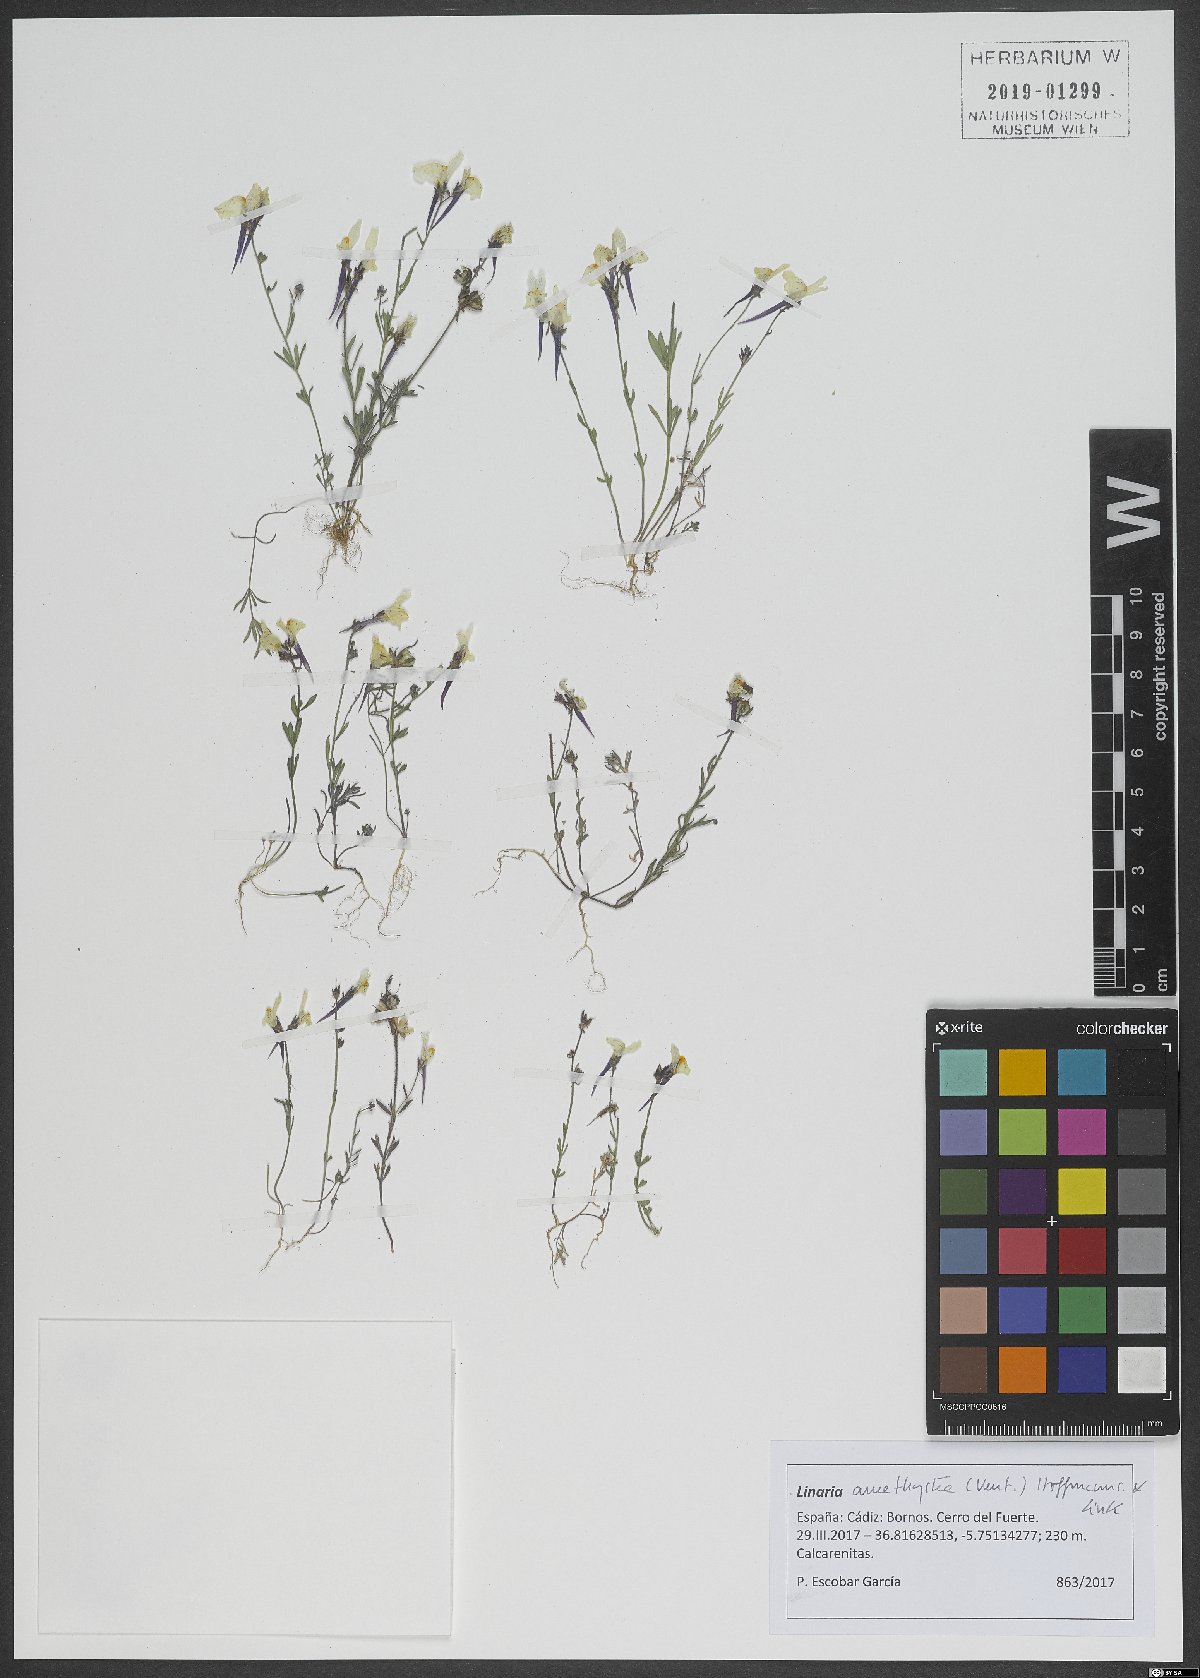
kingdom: Plantae
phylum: Tracheophyta
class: Magnoliopsida
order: Lamiales
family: Plantaginaceae
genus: Linaria
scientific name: Linaria amethystea
